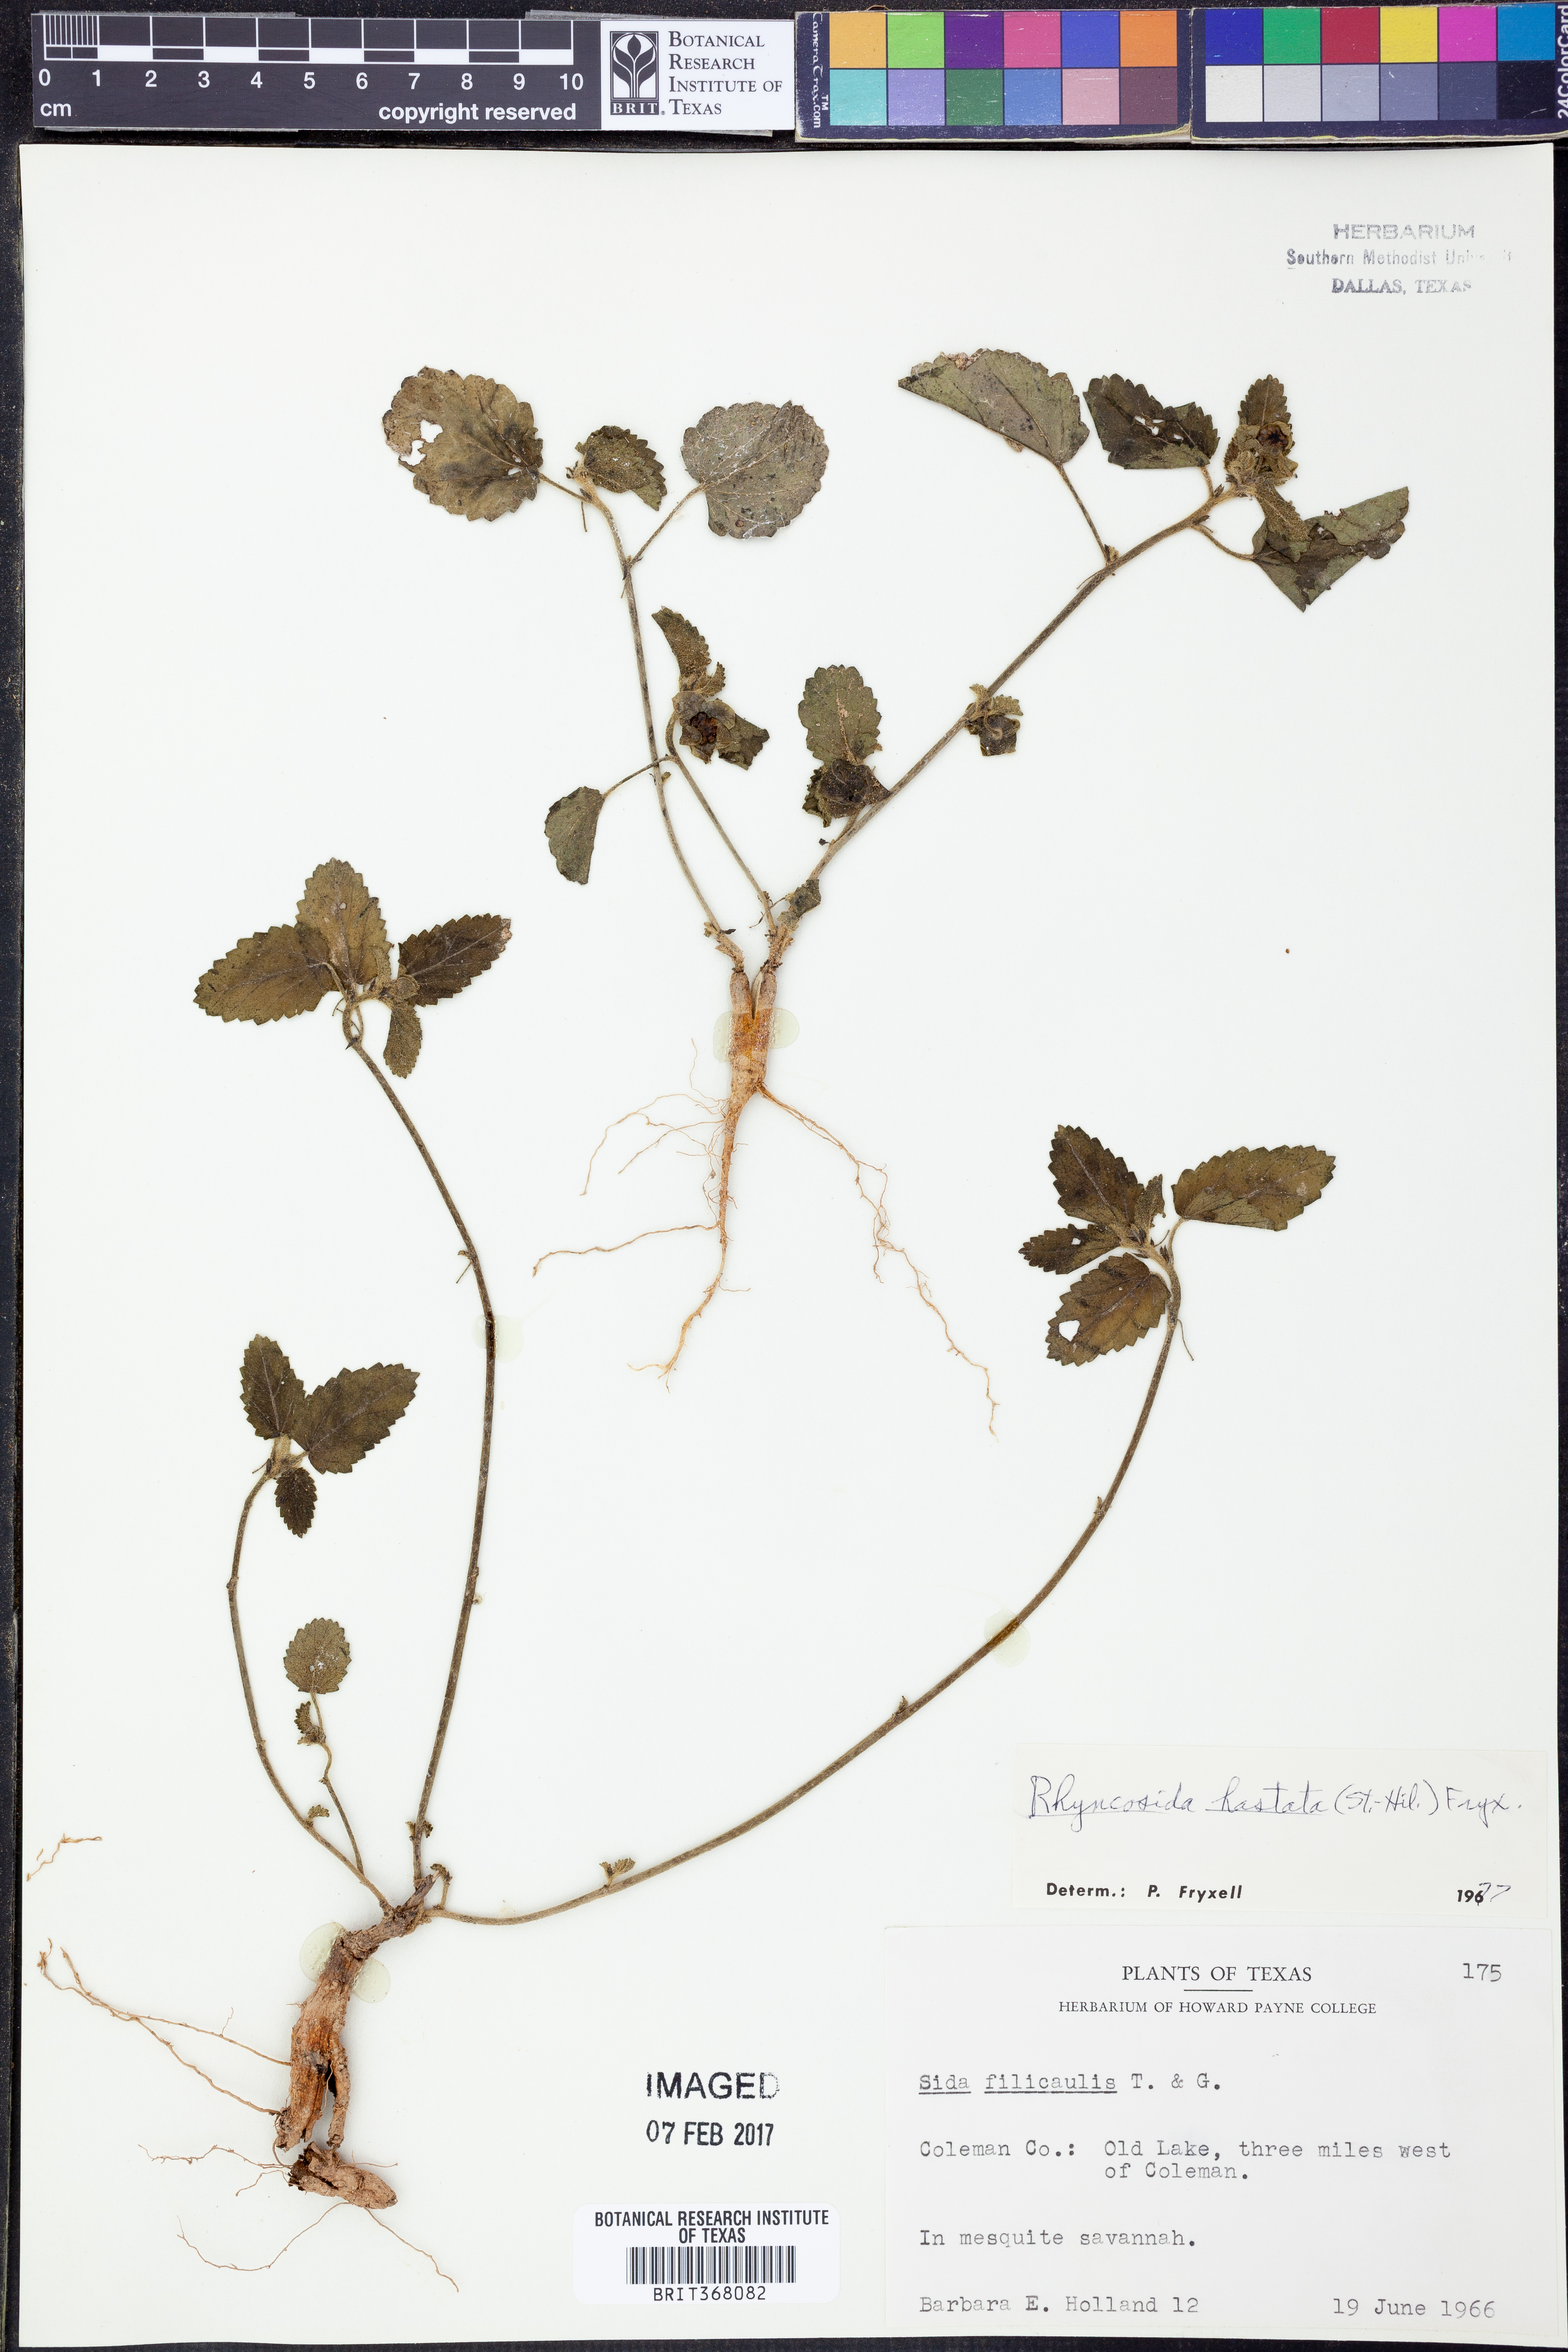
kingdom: Plantae
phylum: Tracheophyta
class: Magnoliopsida
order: Malvales
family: Malvaceae
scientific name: Malvaceae
